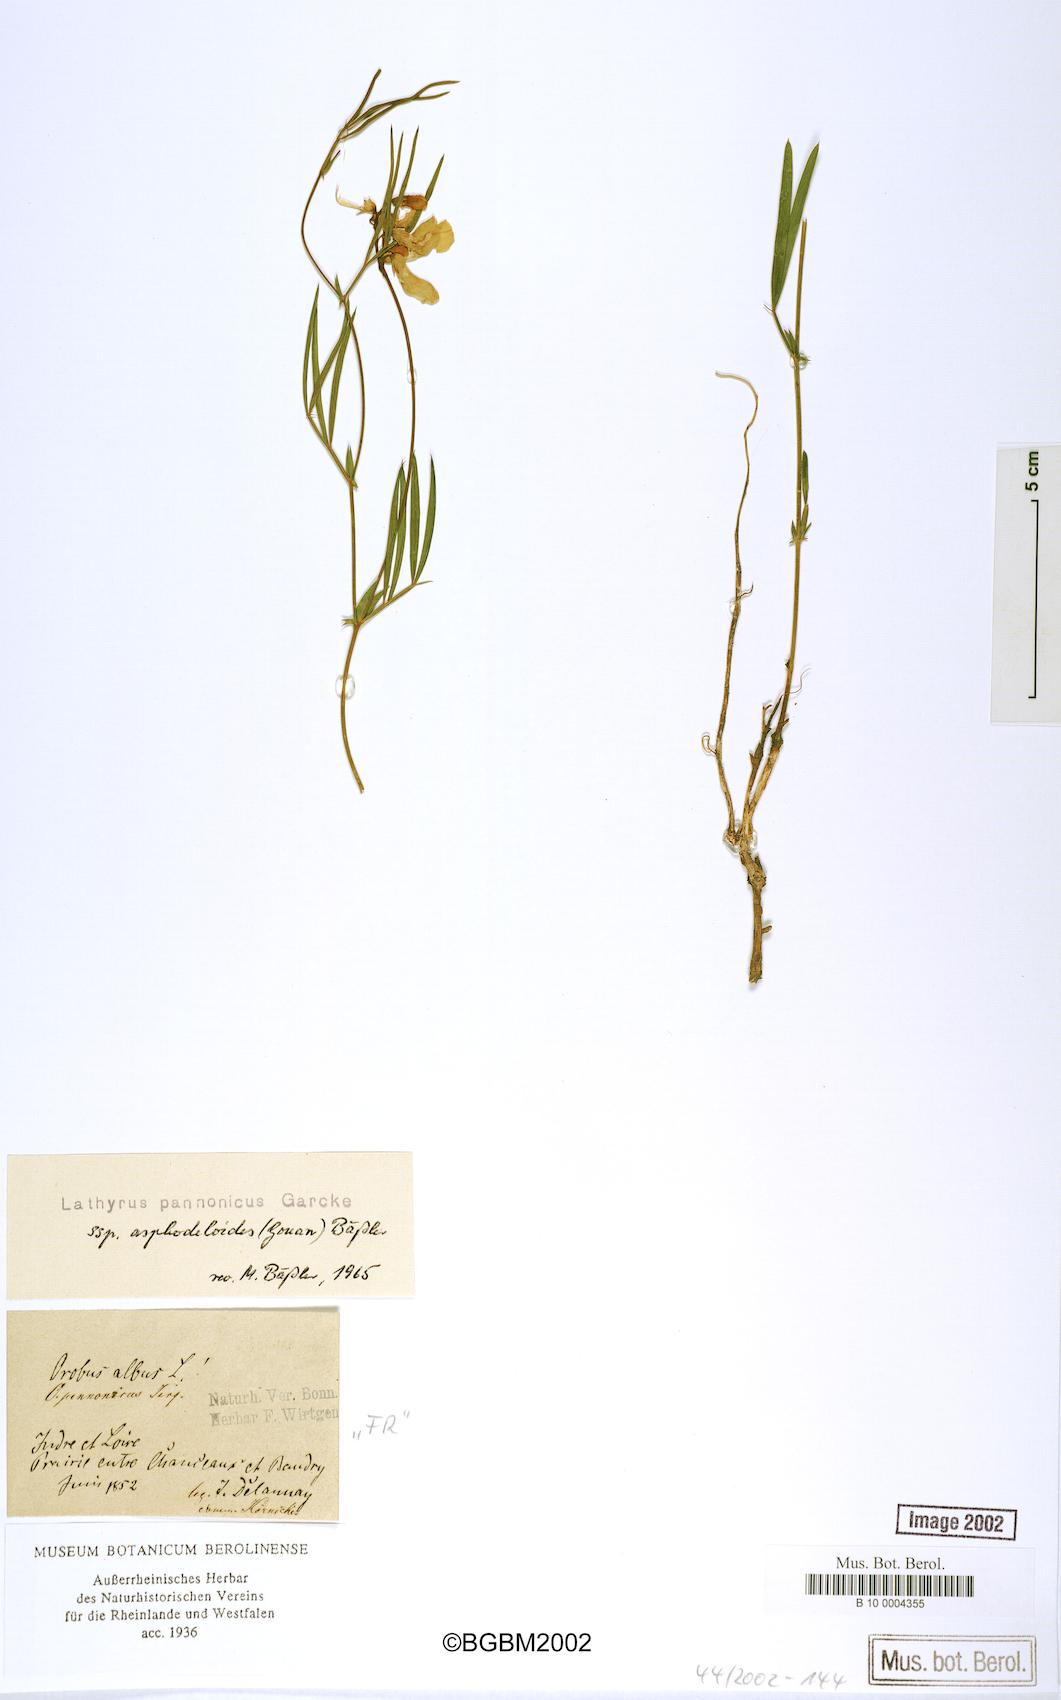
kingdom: Plantae
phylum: Tracheophyta
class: Magnoliopsida
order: Fabales
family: Fabaceae
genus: Lathyrus
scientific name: Lathyrus pannonicus
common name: Pea
